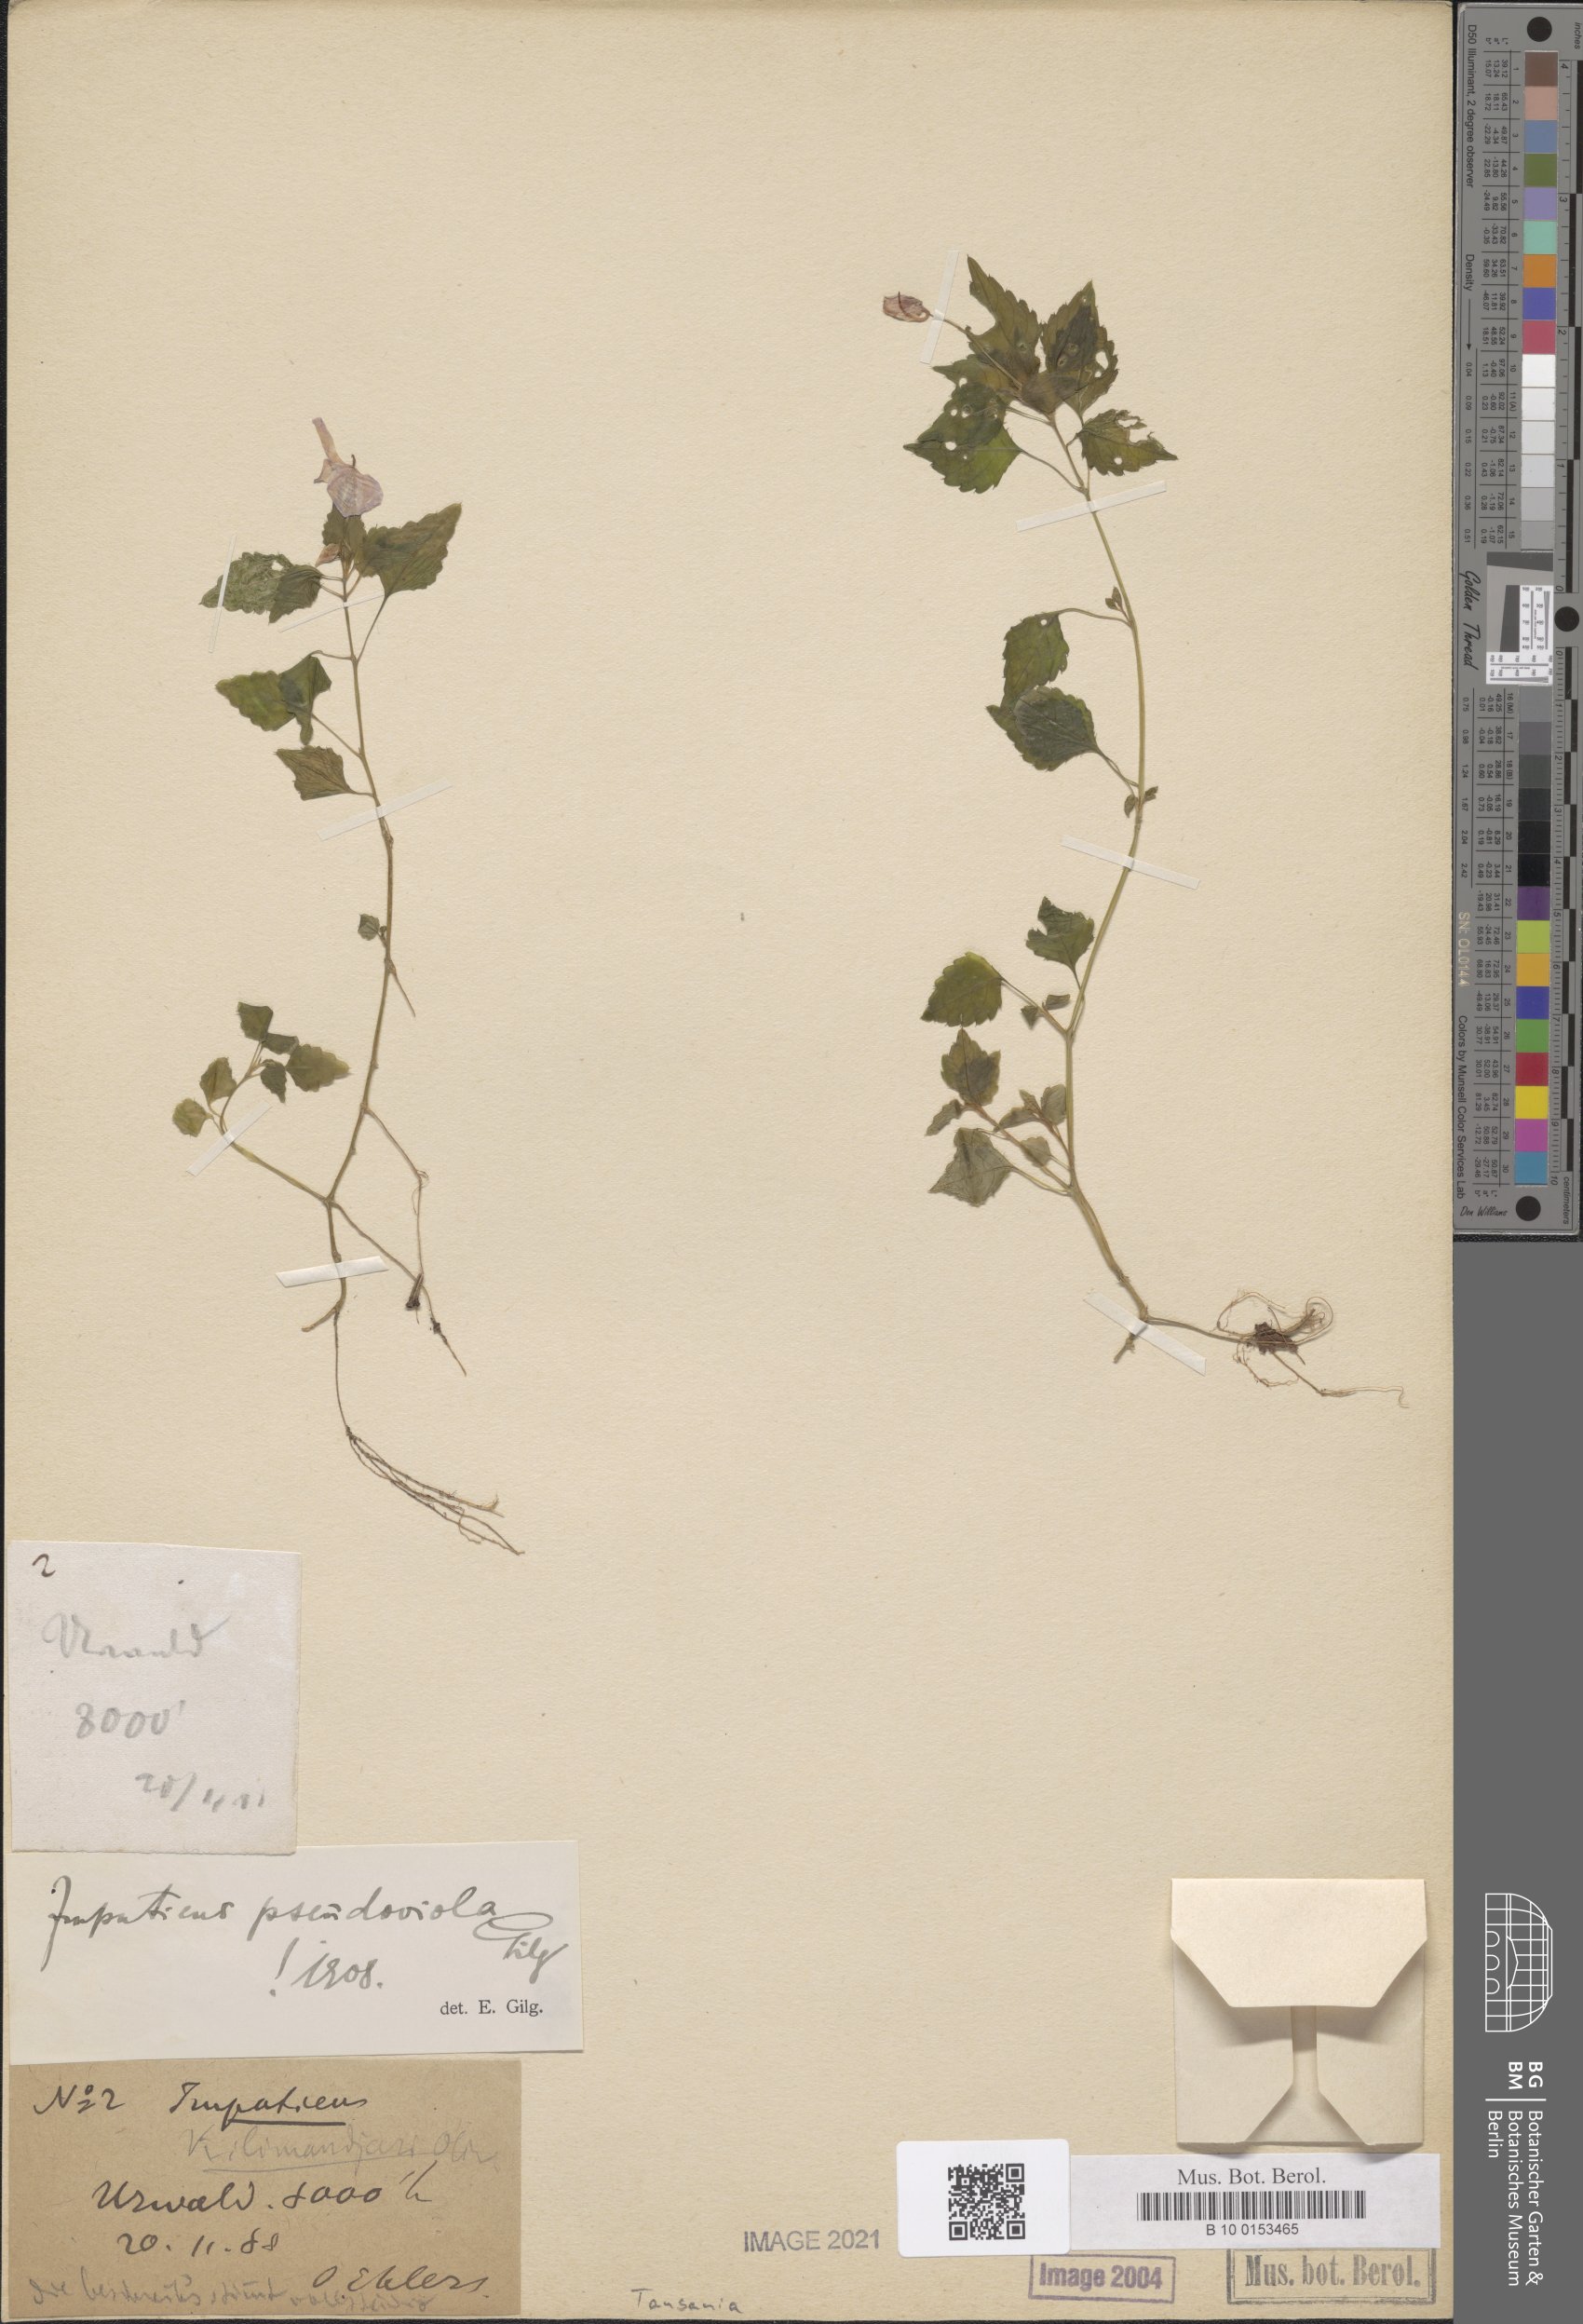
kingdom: Plantae
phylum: Tracheophyta
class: Magnoliopsida
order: Ericales
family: Balsaminaceae
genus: Impatiens
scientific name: Impatiens pseudoviola
